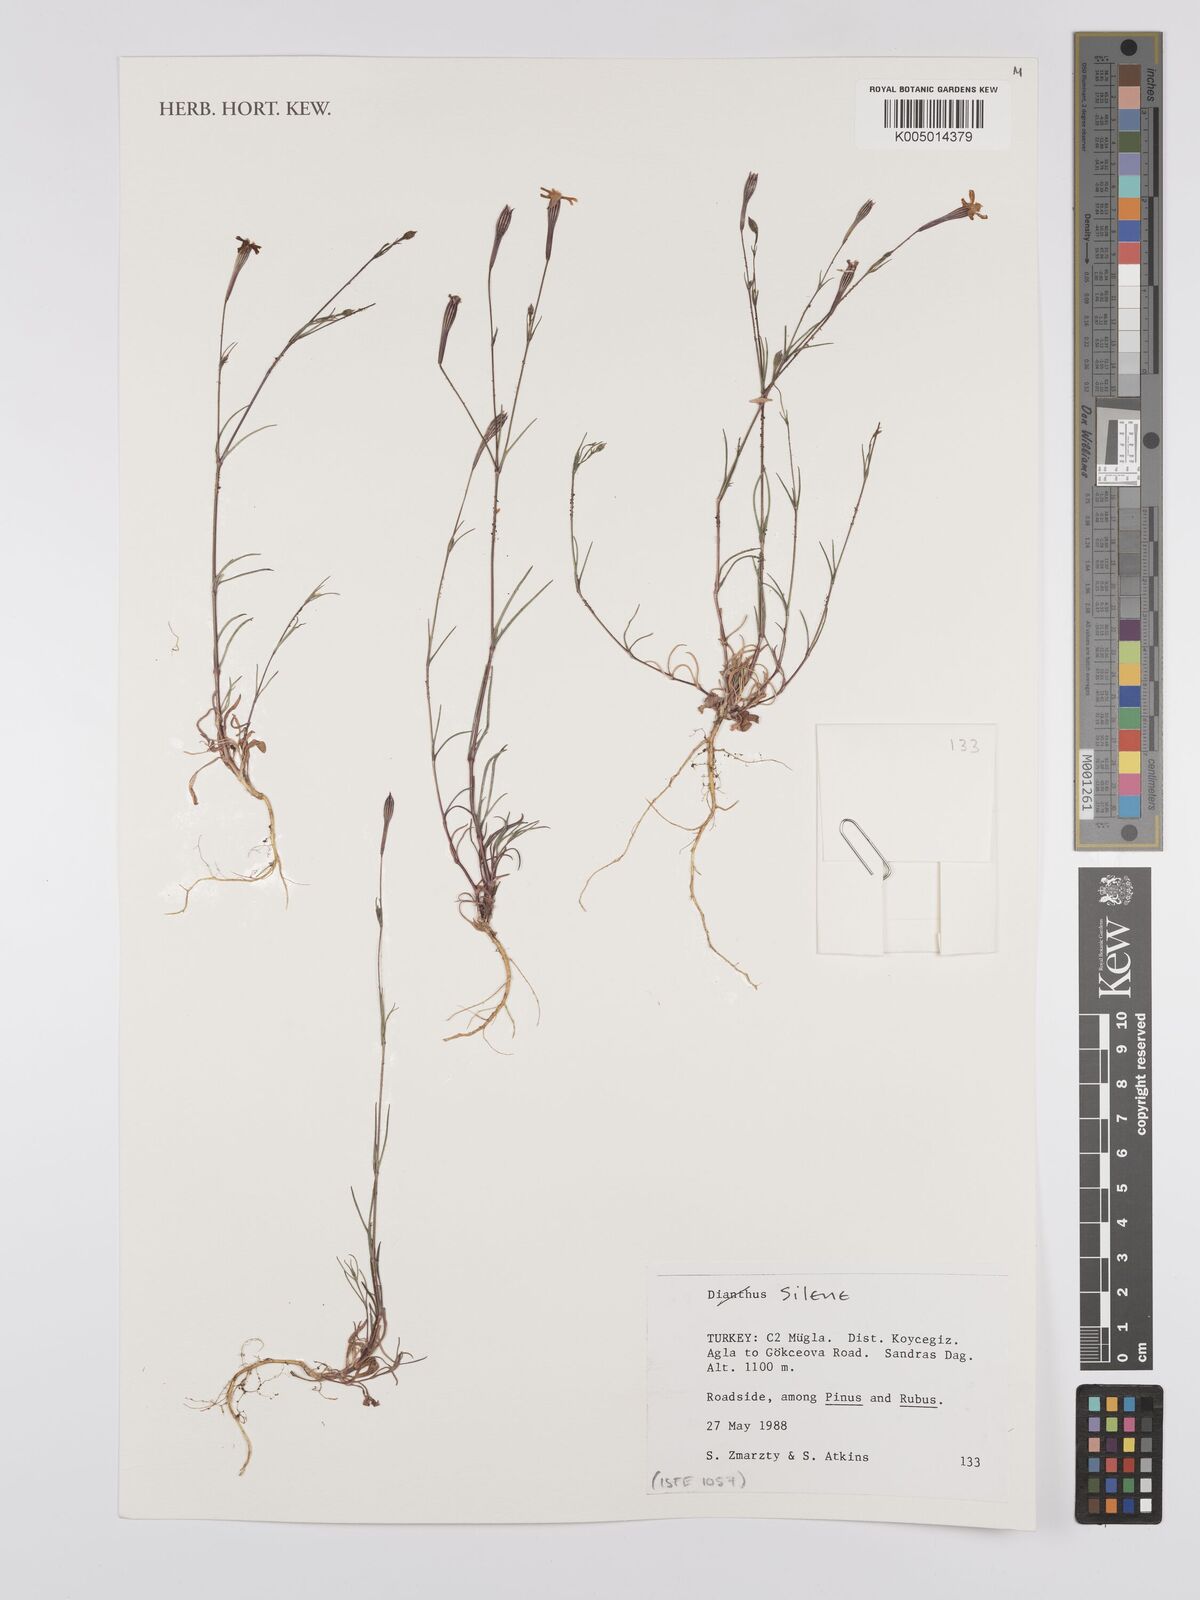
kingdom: Plantae
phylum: Tracheophyta
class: Magnoliopsida
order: Caryophyllales
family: Caryophyllaceae
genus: Silene
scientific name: Silene
